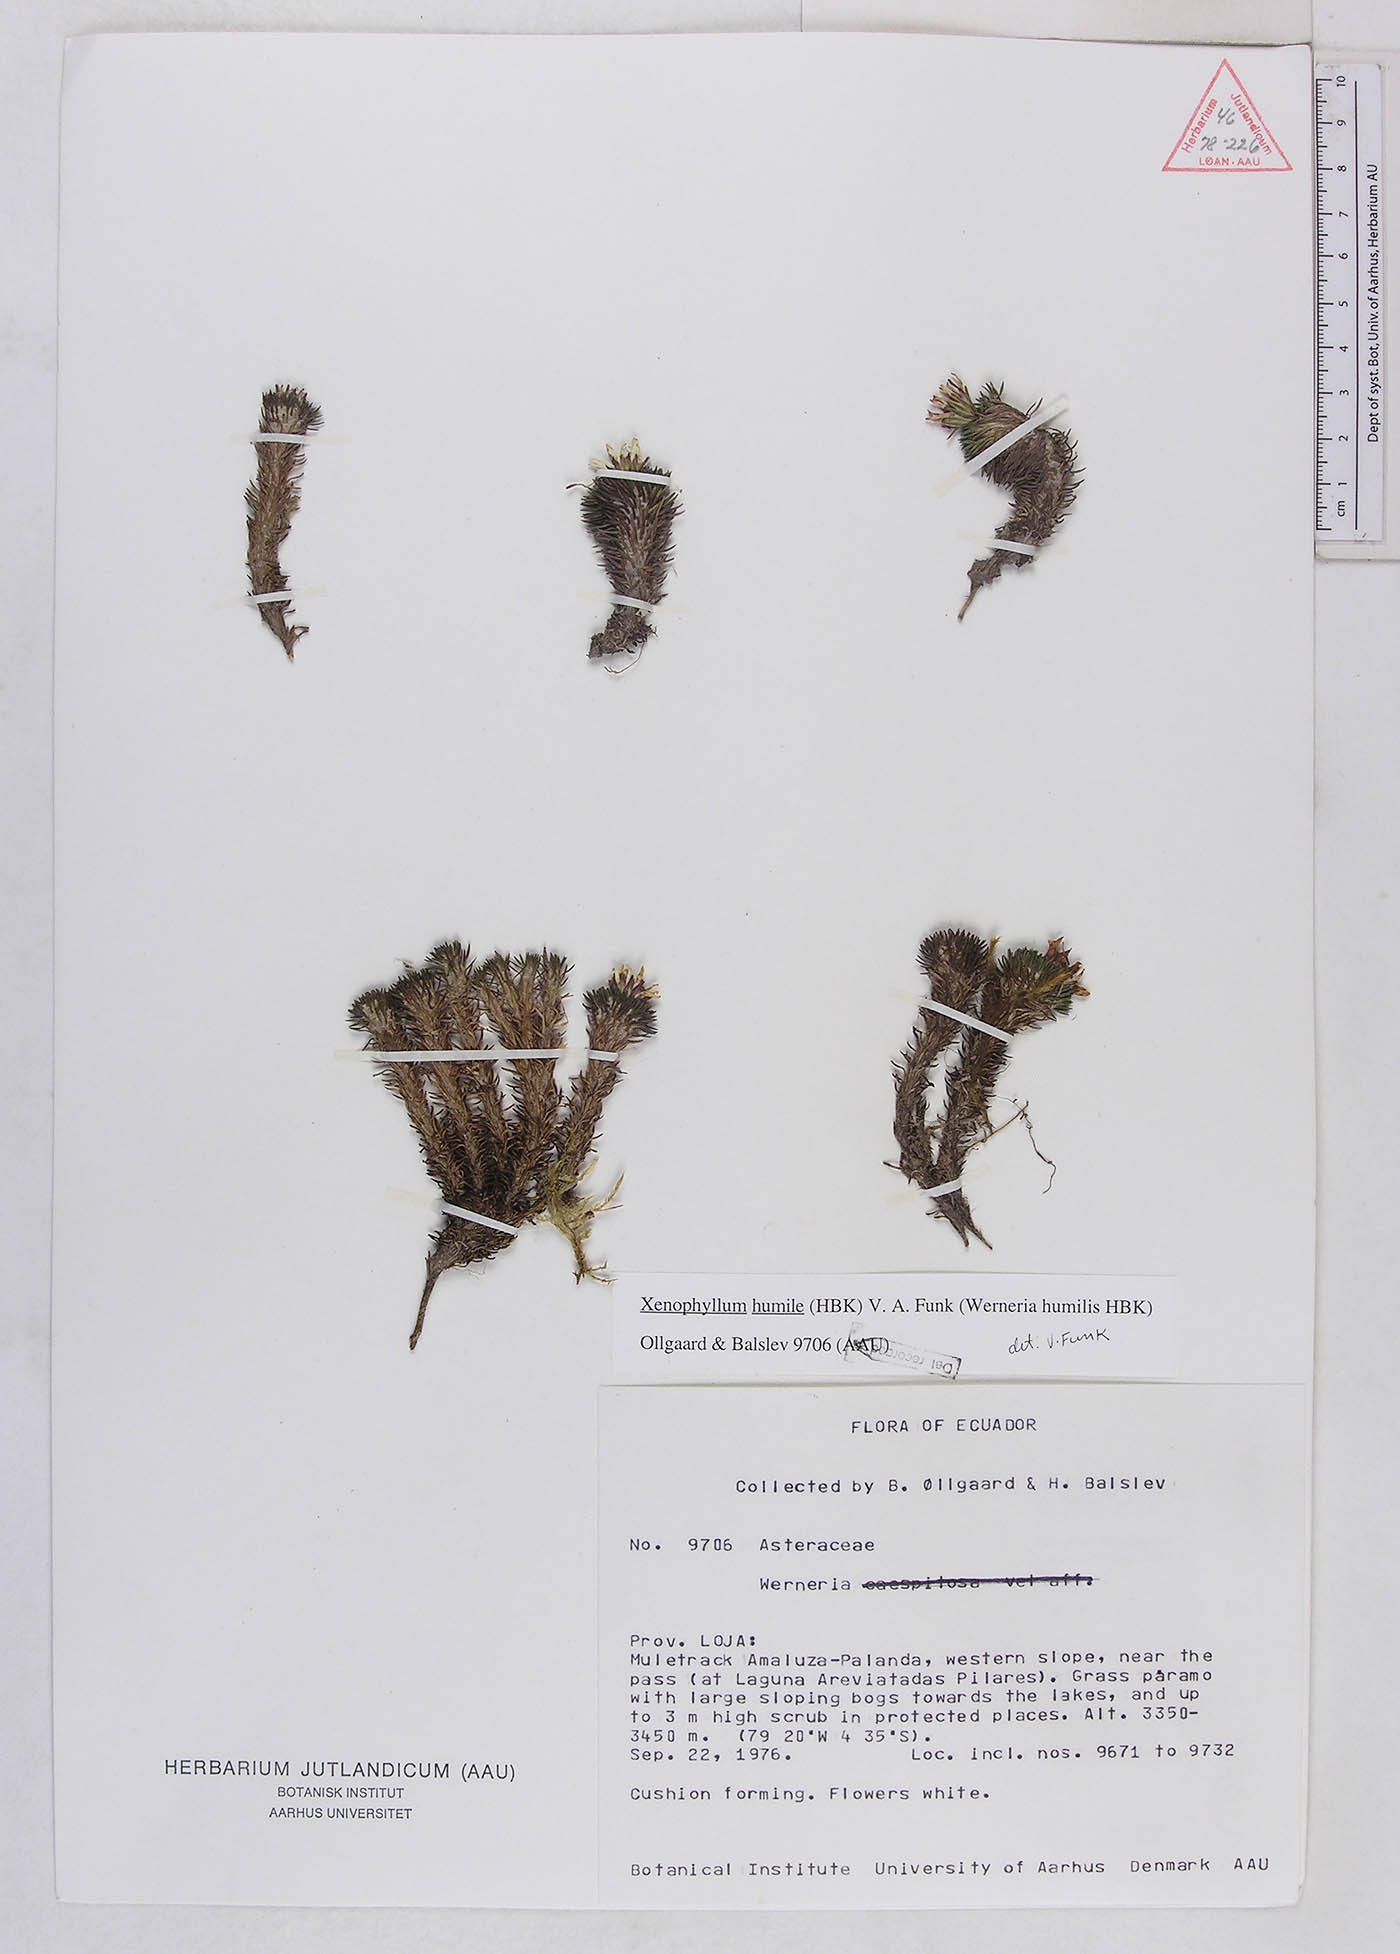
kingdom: Plantae
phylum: Tracheophyta
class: Magnoliopsida
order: Asterales
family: Asteraceae
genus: Werneria
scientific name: Werneria humilis
